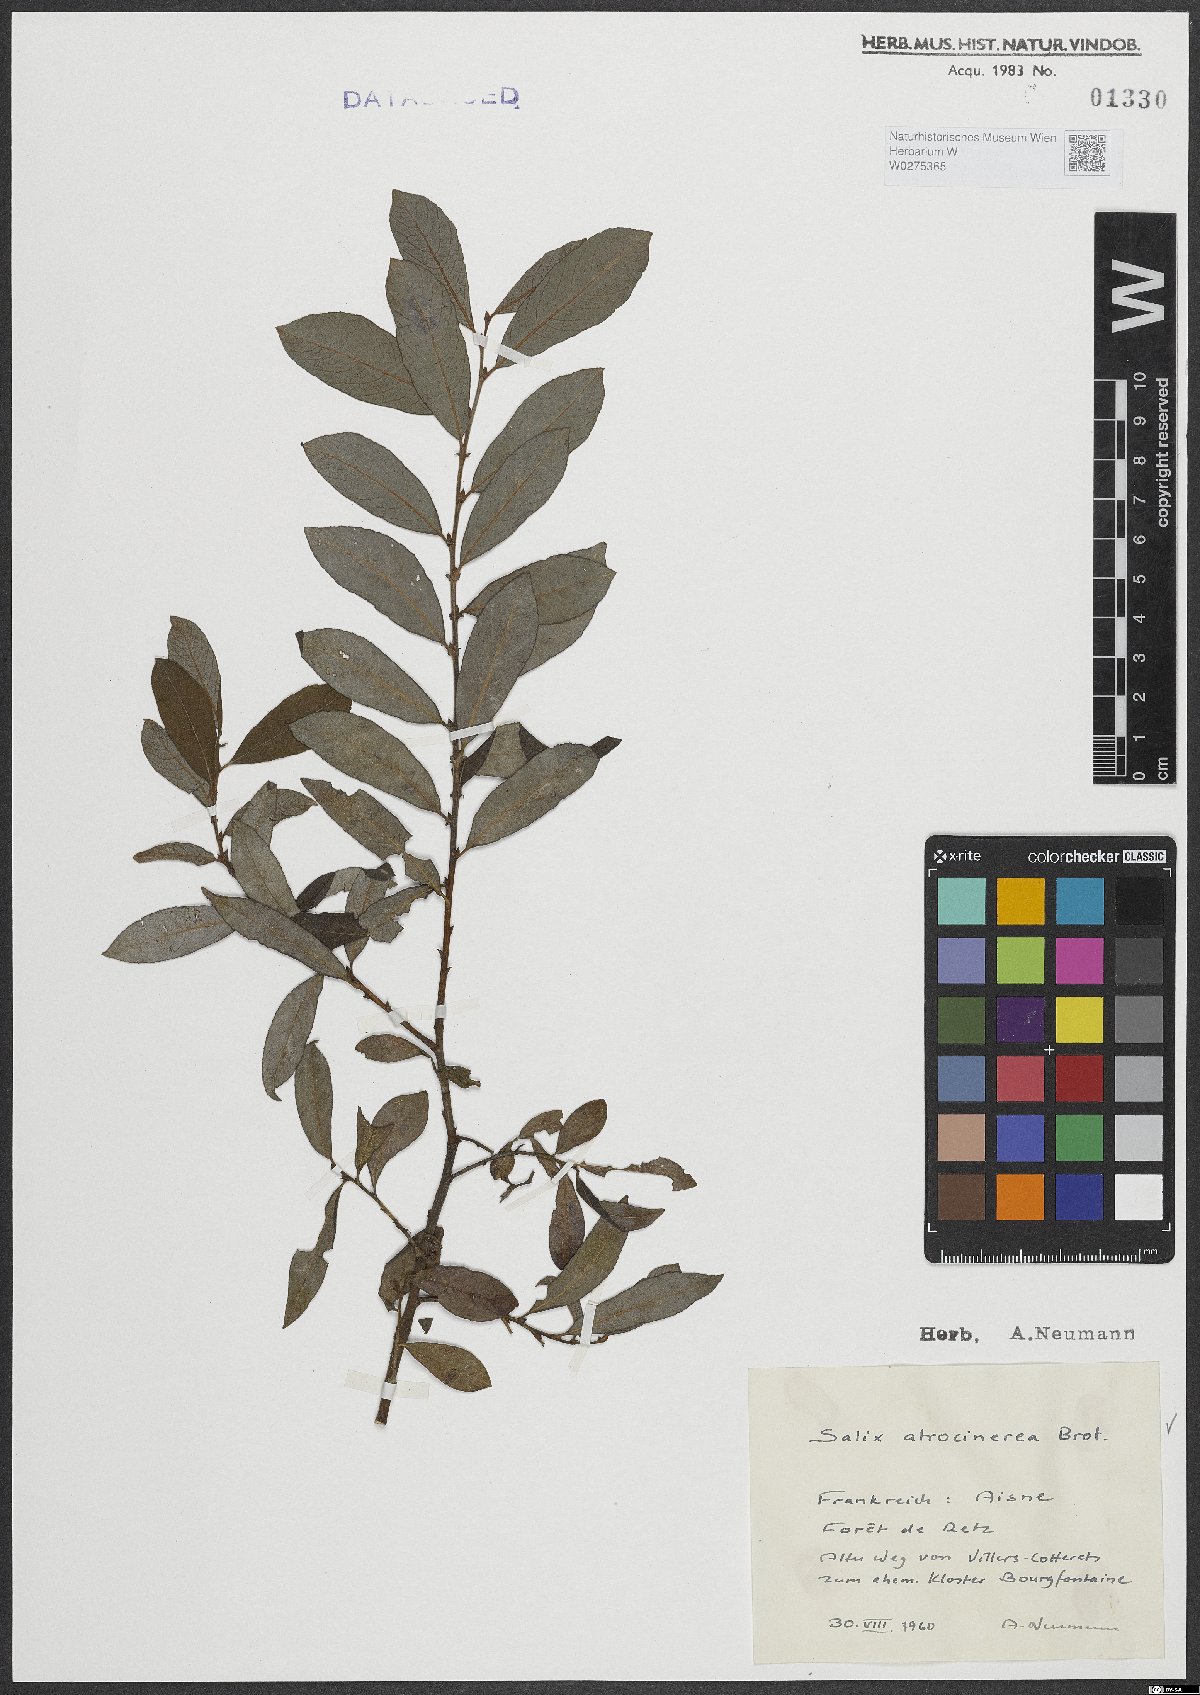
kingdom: Plantae
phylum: Tracheophyta
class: Magnoliopsida
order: Malpighiales
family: Salicaceae
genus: Salix
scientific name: Salix atrocinerea
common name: Rusty willow
